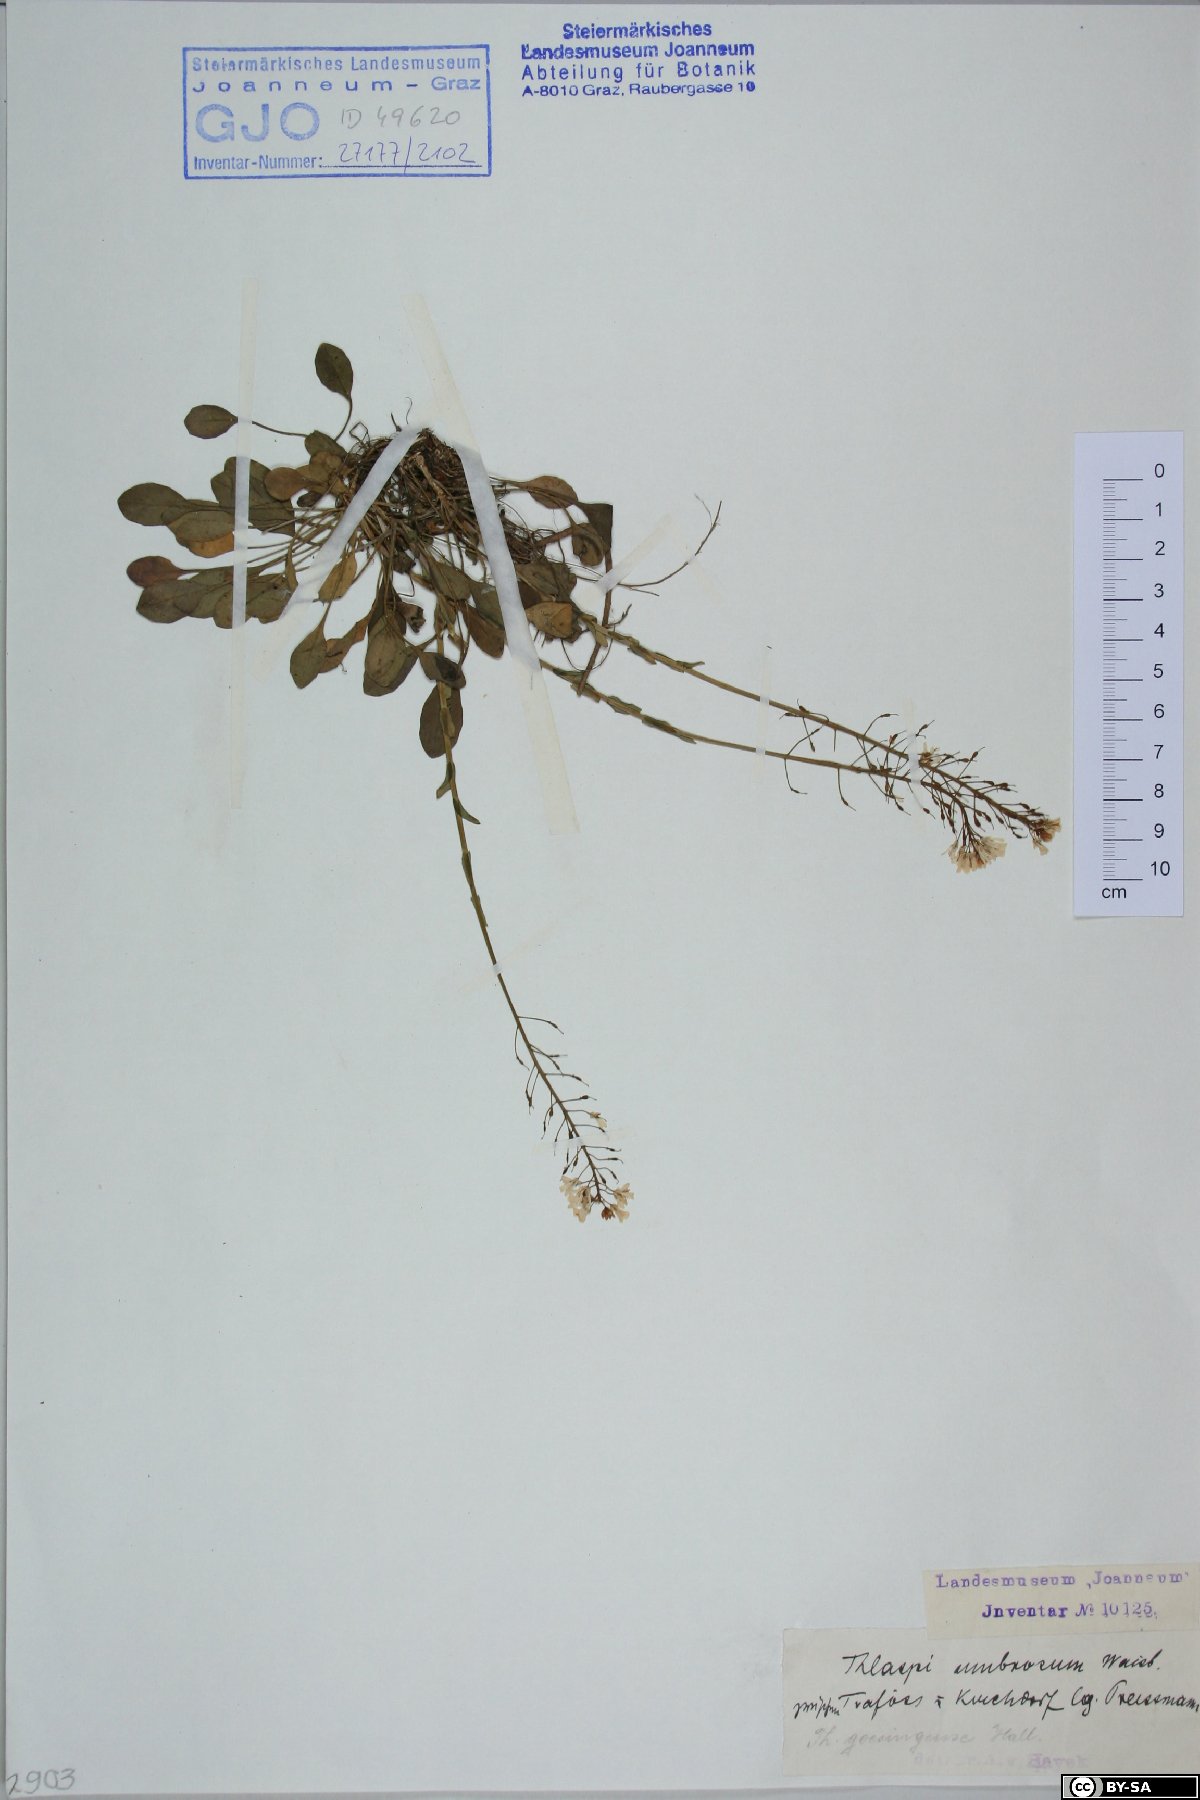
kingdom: Plantae
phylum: Tracheophyta
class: Magnoliopsida
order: Brassicales
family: Brassicaceae
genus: Noccaea
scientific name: Noccaea goesingensis
